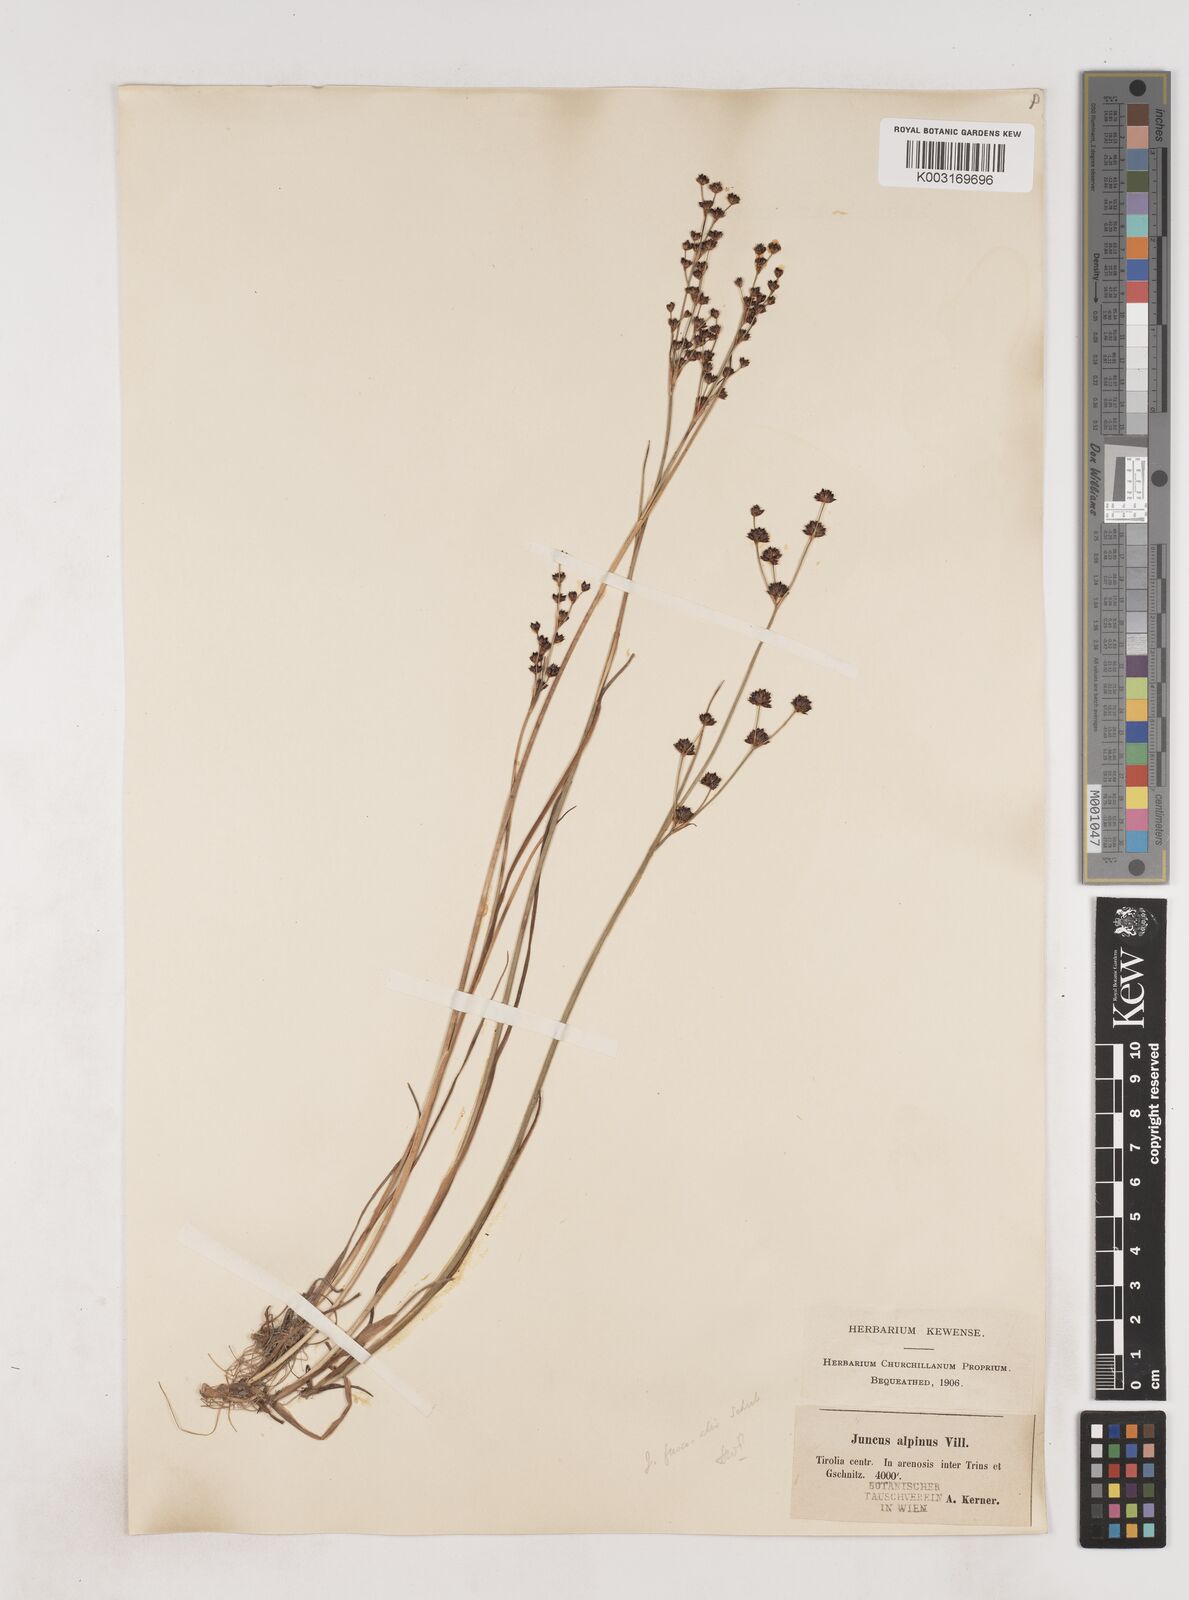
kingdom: Plantae
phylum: Tracheophyta
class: Liliopsida
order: Poales
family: Juncaceae
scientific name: Juncaceae
